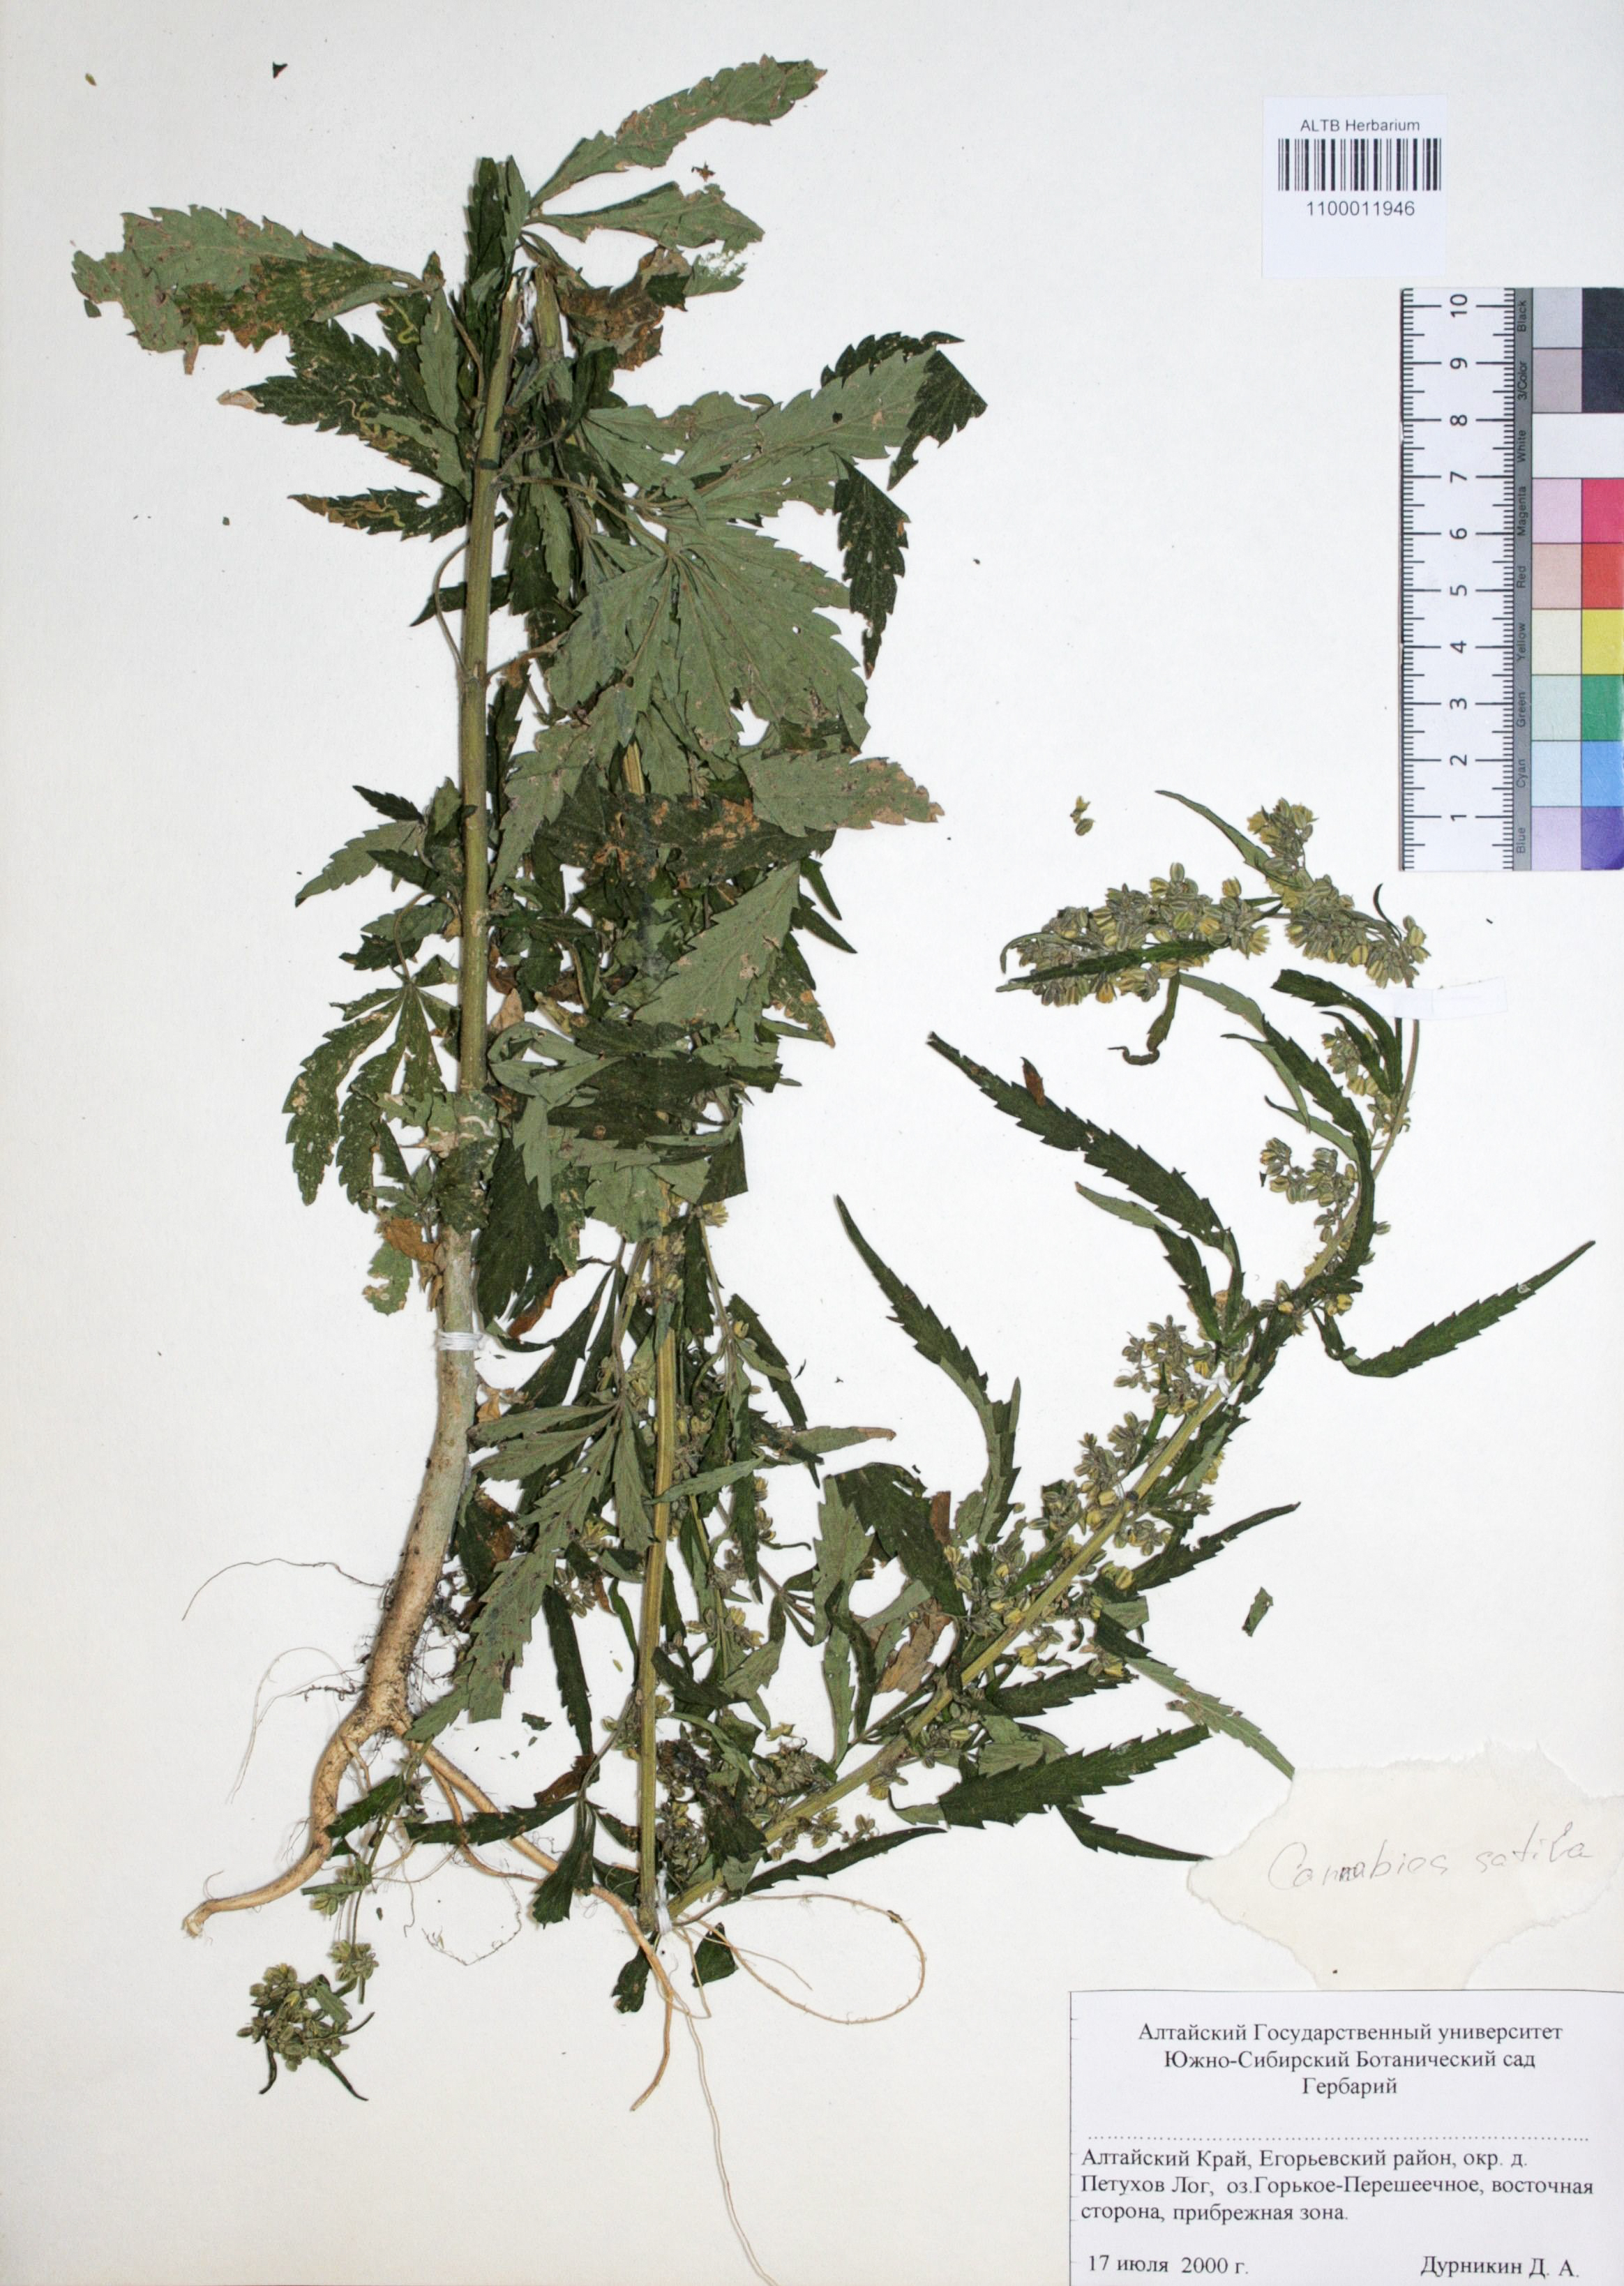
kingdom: Plantae
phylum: Tracheophyta
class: Magnoliopsida
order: Rosales
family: Cannabaceae
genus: Cannabis
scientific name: Cannabis sativa
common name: Hemp
